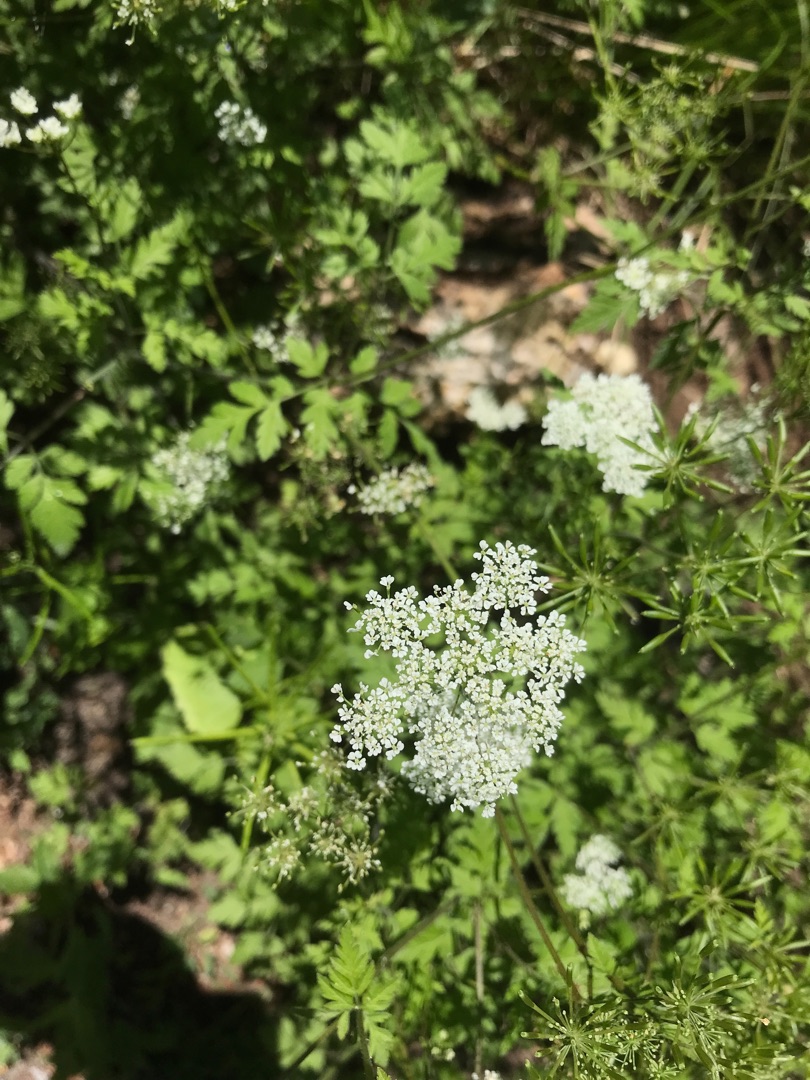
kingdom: Plantae
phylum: Tracheophyta
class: Magnoliopsida
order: Apiales
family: Apiaceae
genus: Chaerophyllum
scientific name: Chaerophyllum temulum
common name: Almindelig hulsvøb
